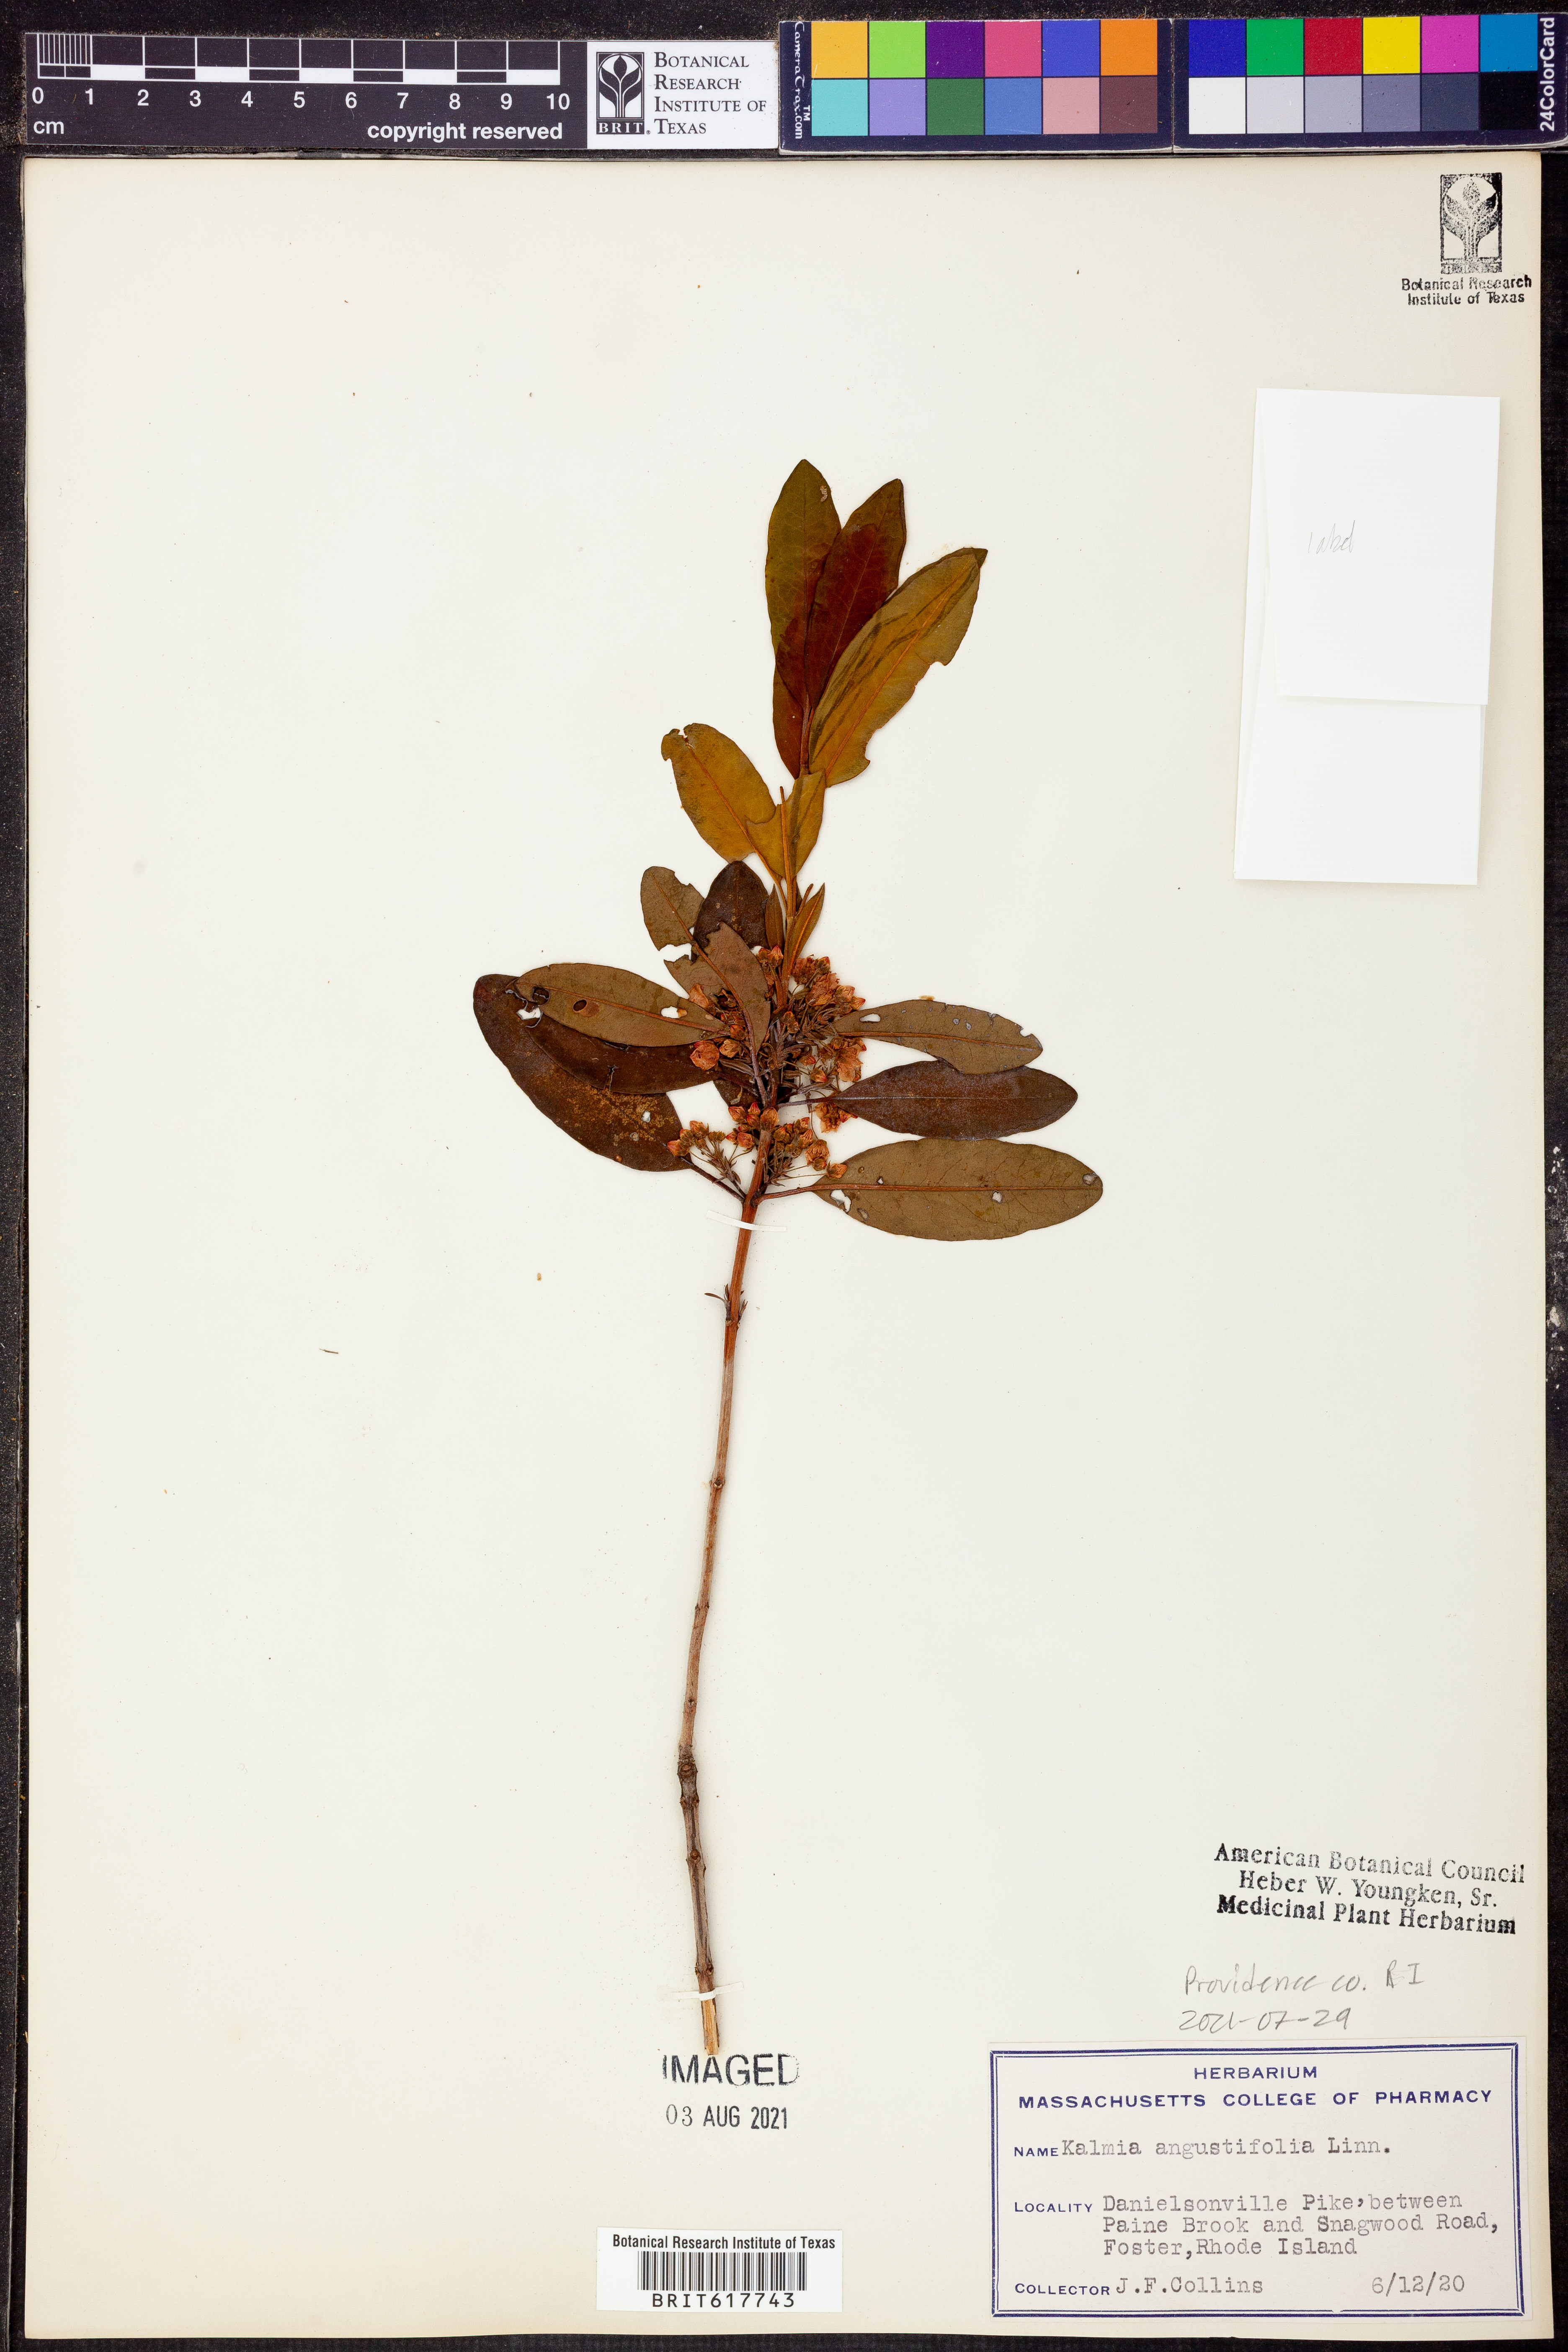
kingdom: Plantae
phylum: Tracheophyta
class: Magnoliopsida
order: Ericales
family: Ericaceae
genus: Kalmia
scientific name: Kalmia angustifolia
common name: Sheep-laurel
